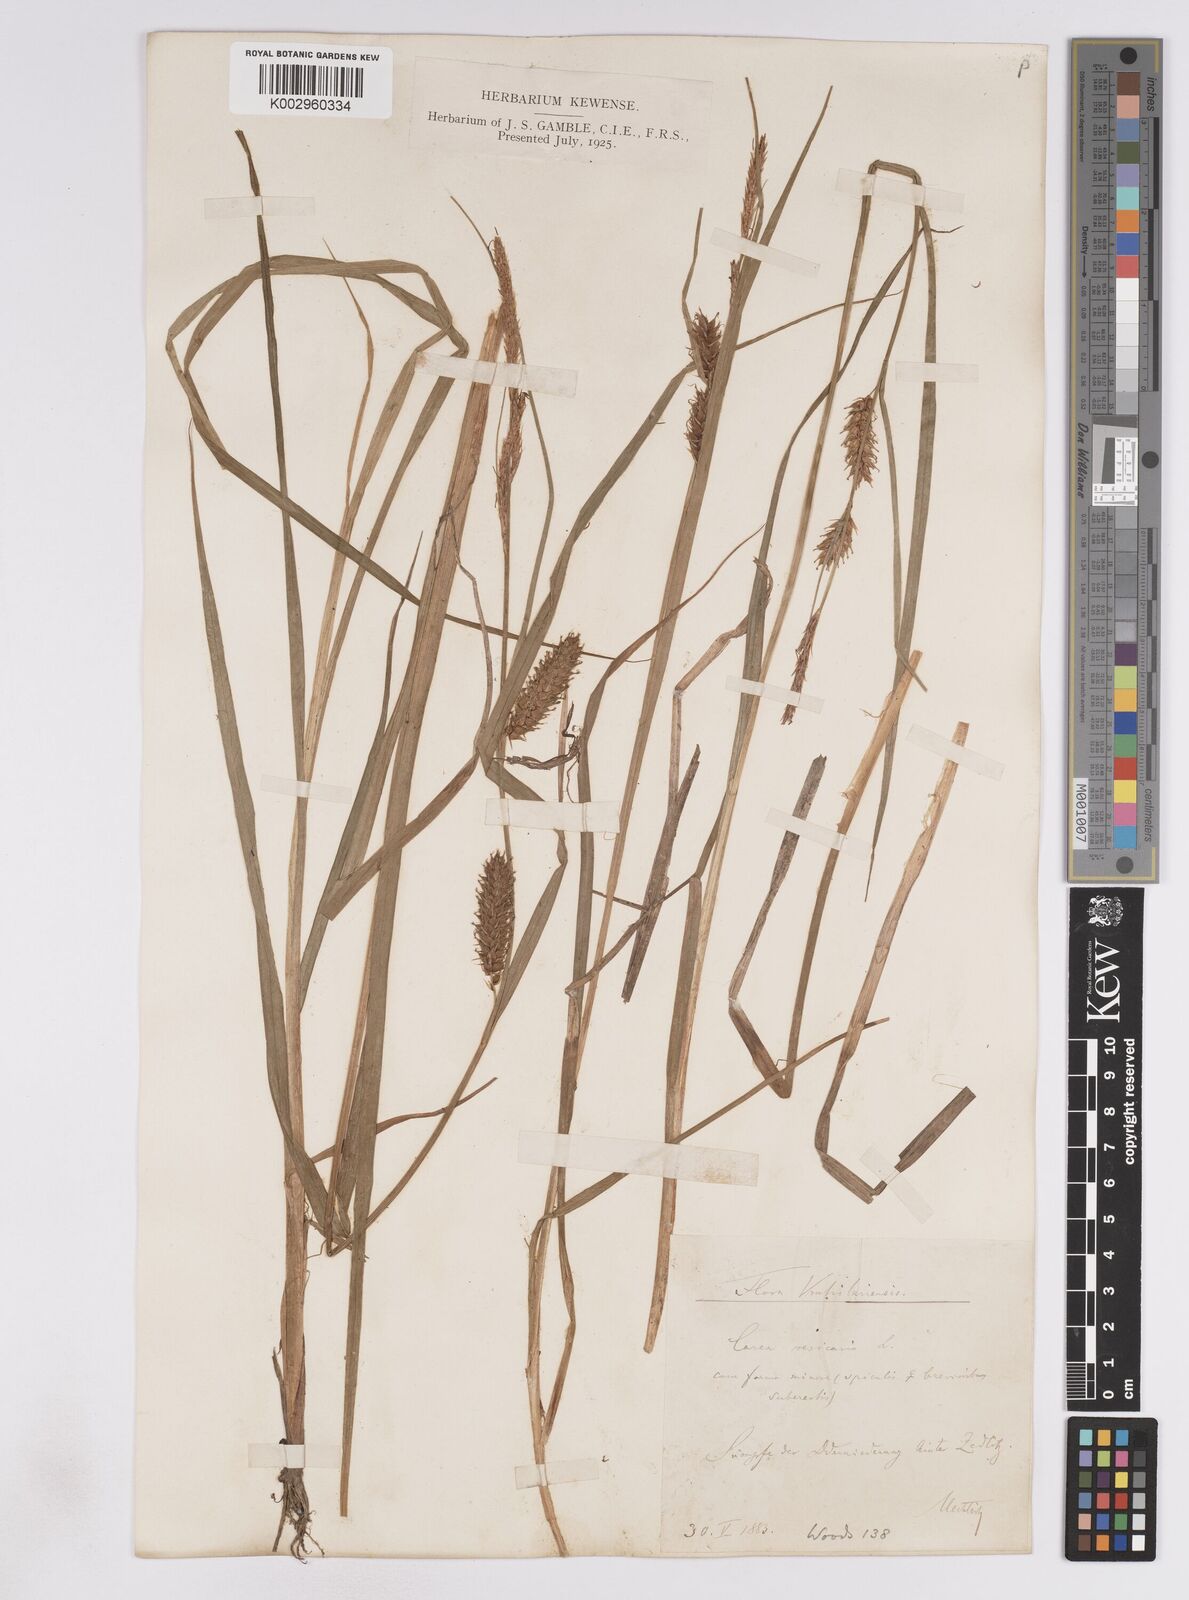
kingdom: Plantae
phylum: Tracheophyta
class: Liliopsida
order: Poales
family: Cyperaceae
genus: Carex
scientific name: Carex vesicaria
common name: Bladder-sedge
